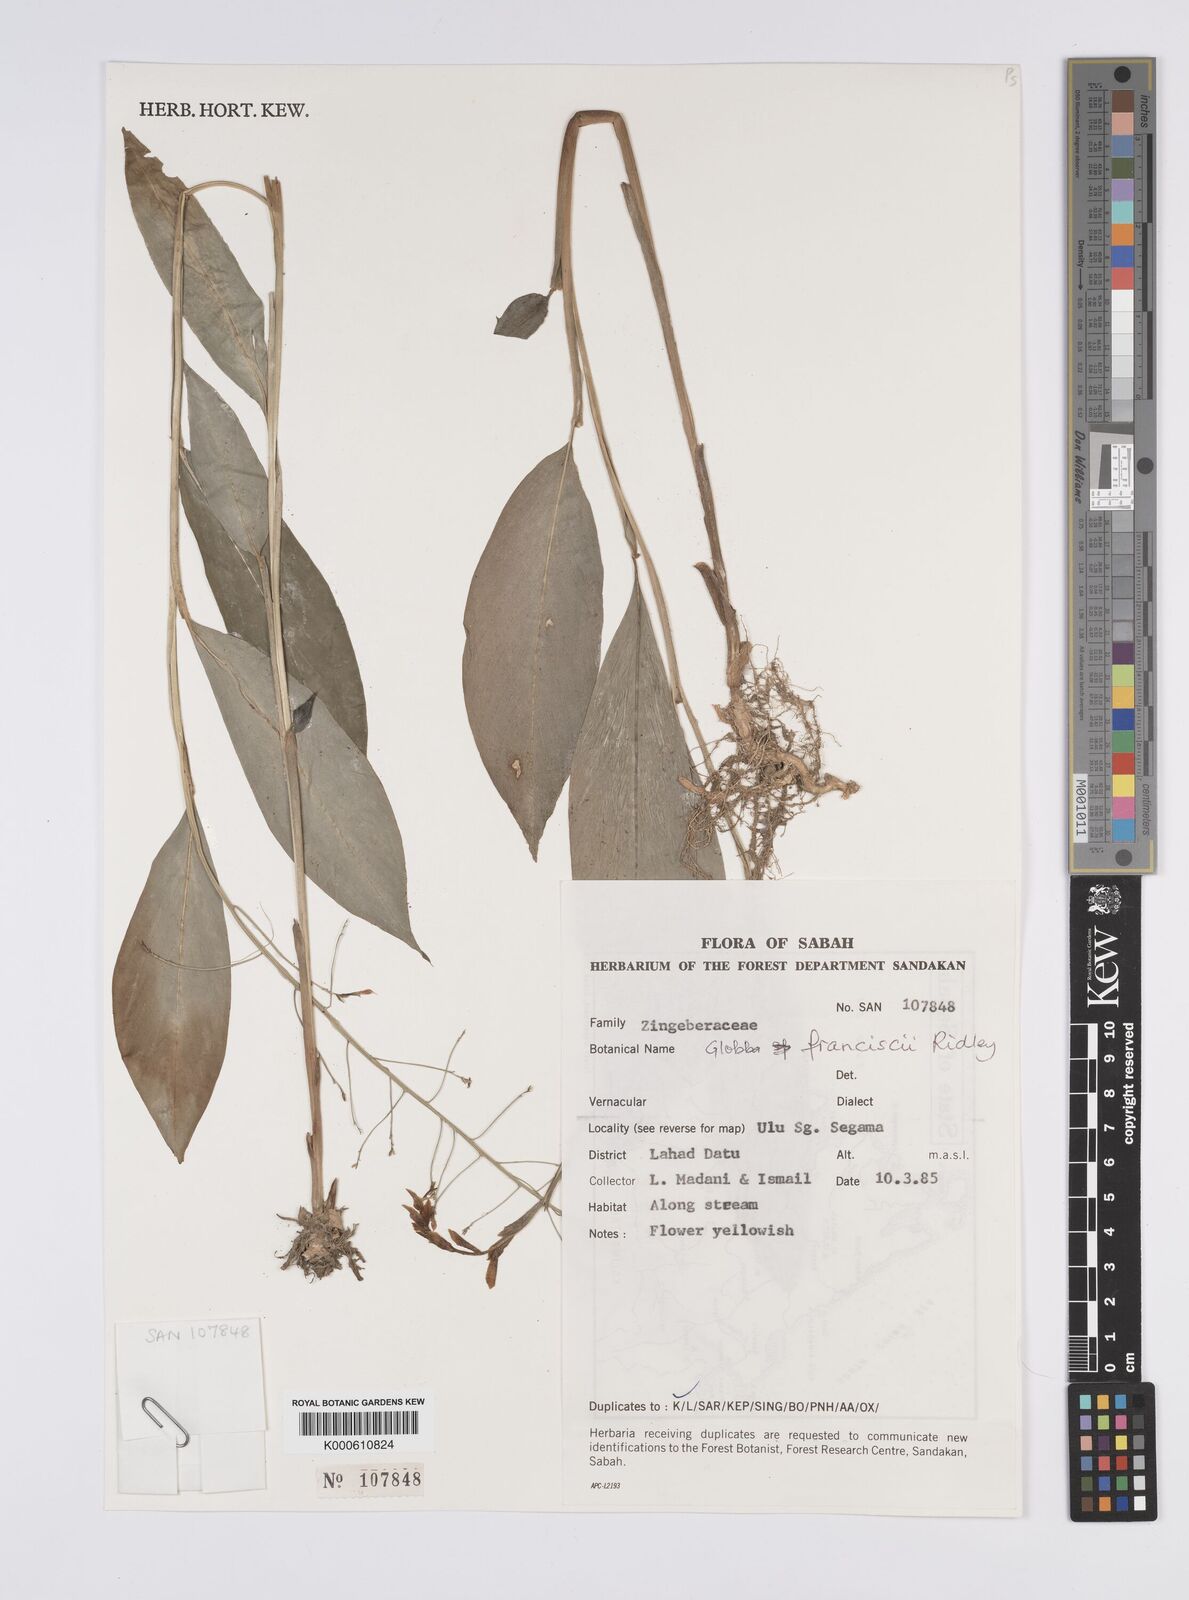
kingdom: Plantae
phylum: Tracheophyta
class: Liliopsida
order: Zingiberales
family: Zingiberaceae
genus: Globba
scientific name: Globba francisci
